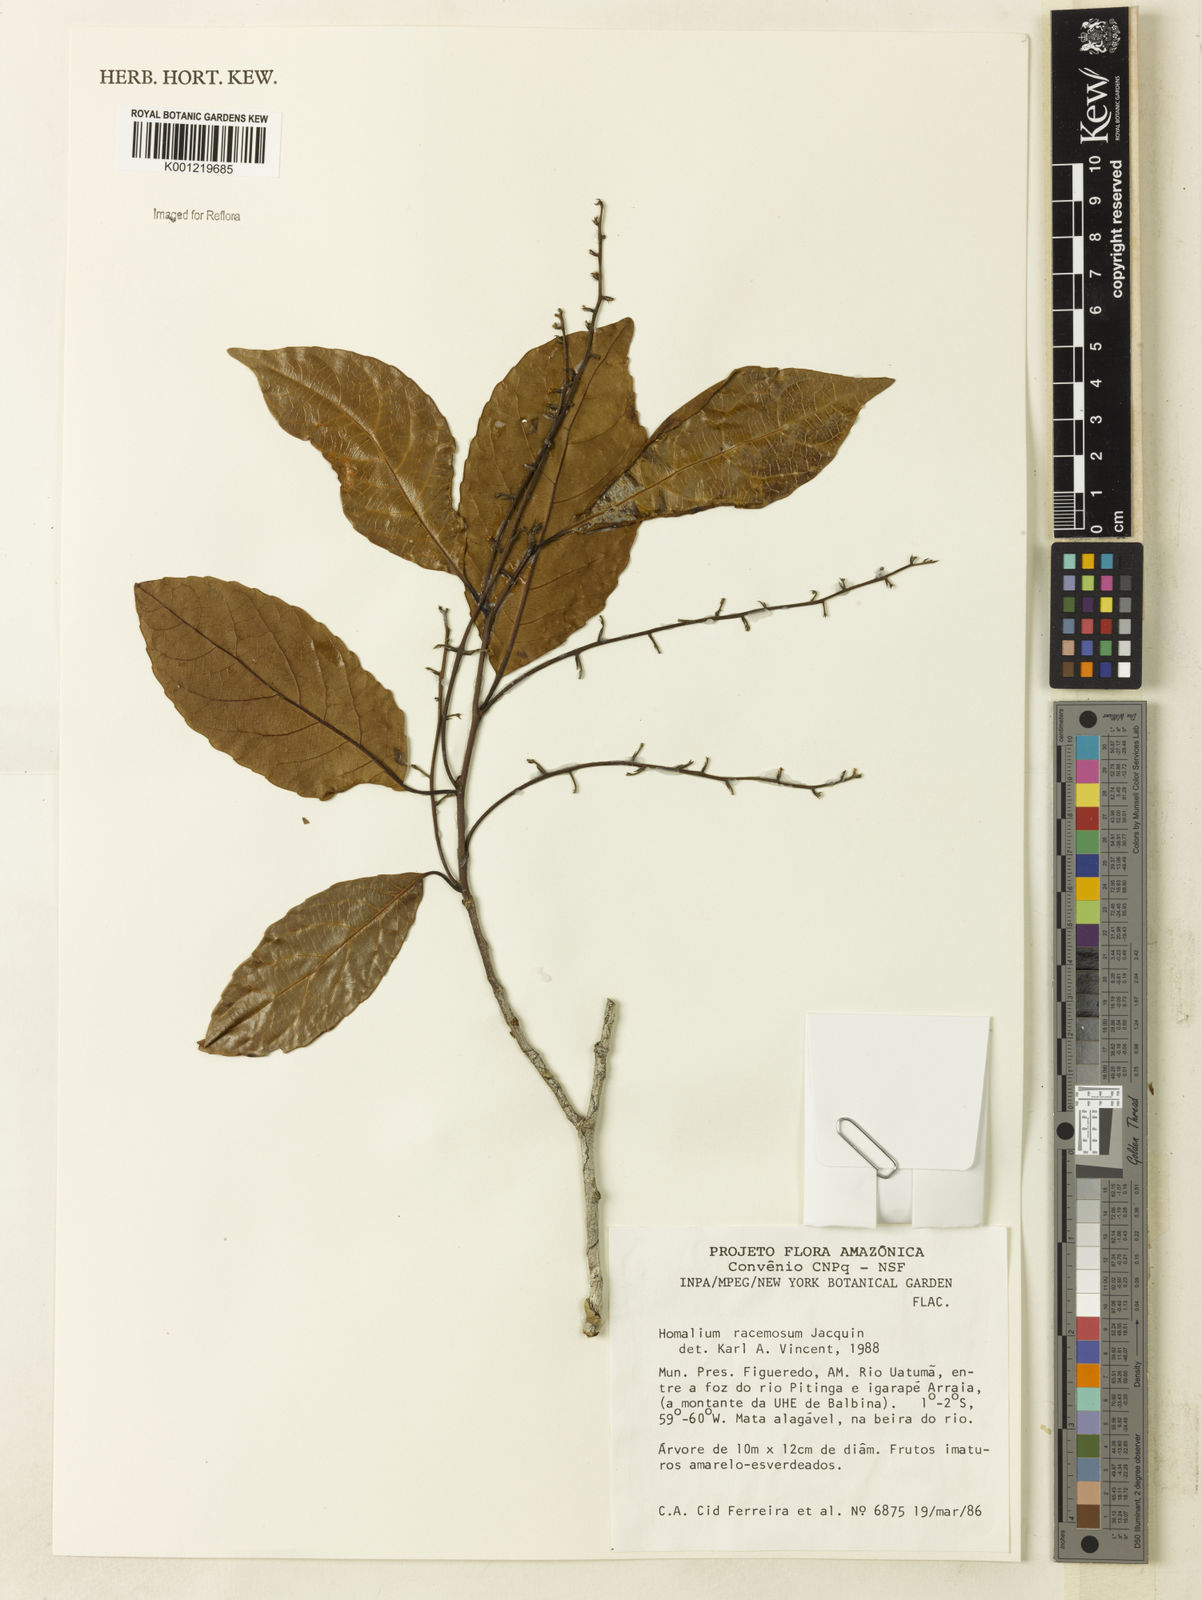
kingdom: Plantae
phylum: Tracheophyta
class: Magnoliopsida
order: Malpighiales
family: Salicaceae
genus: Homalium
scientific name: Homalium racemosum
